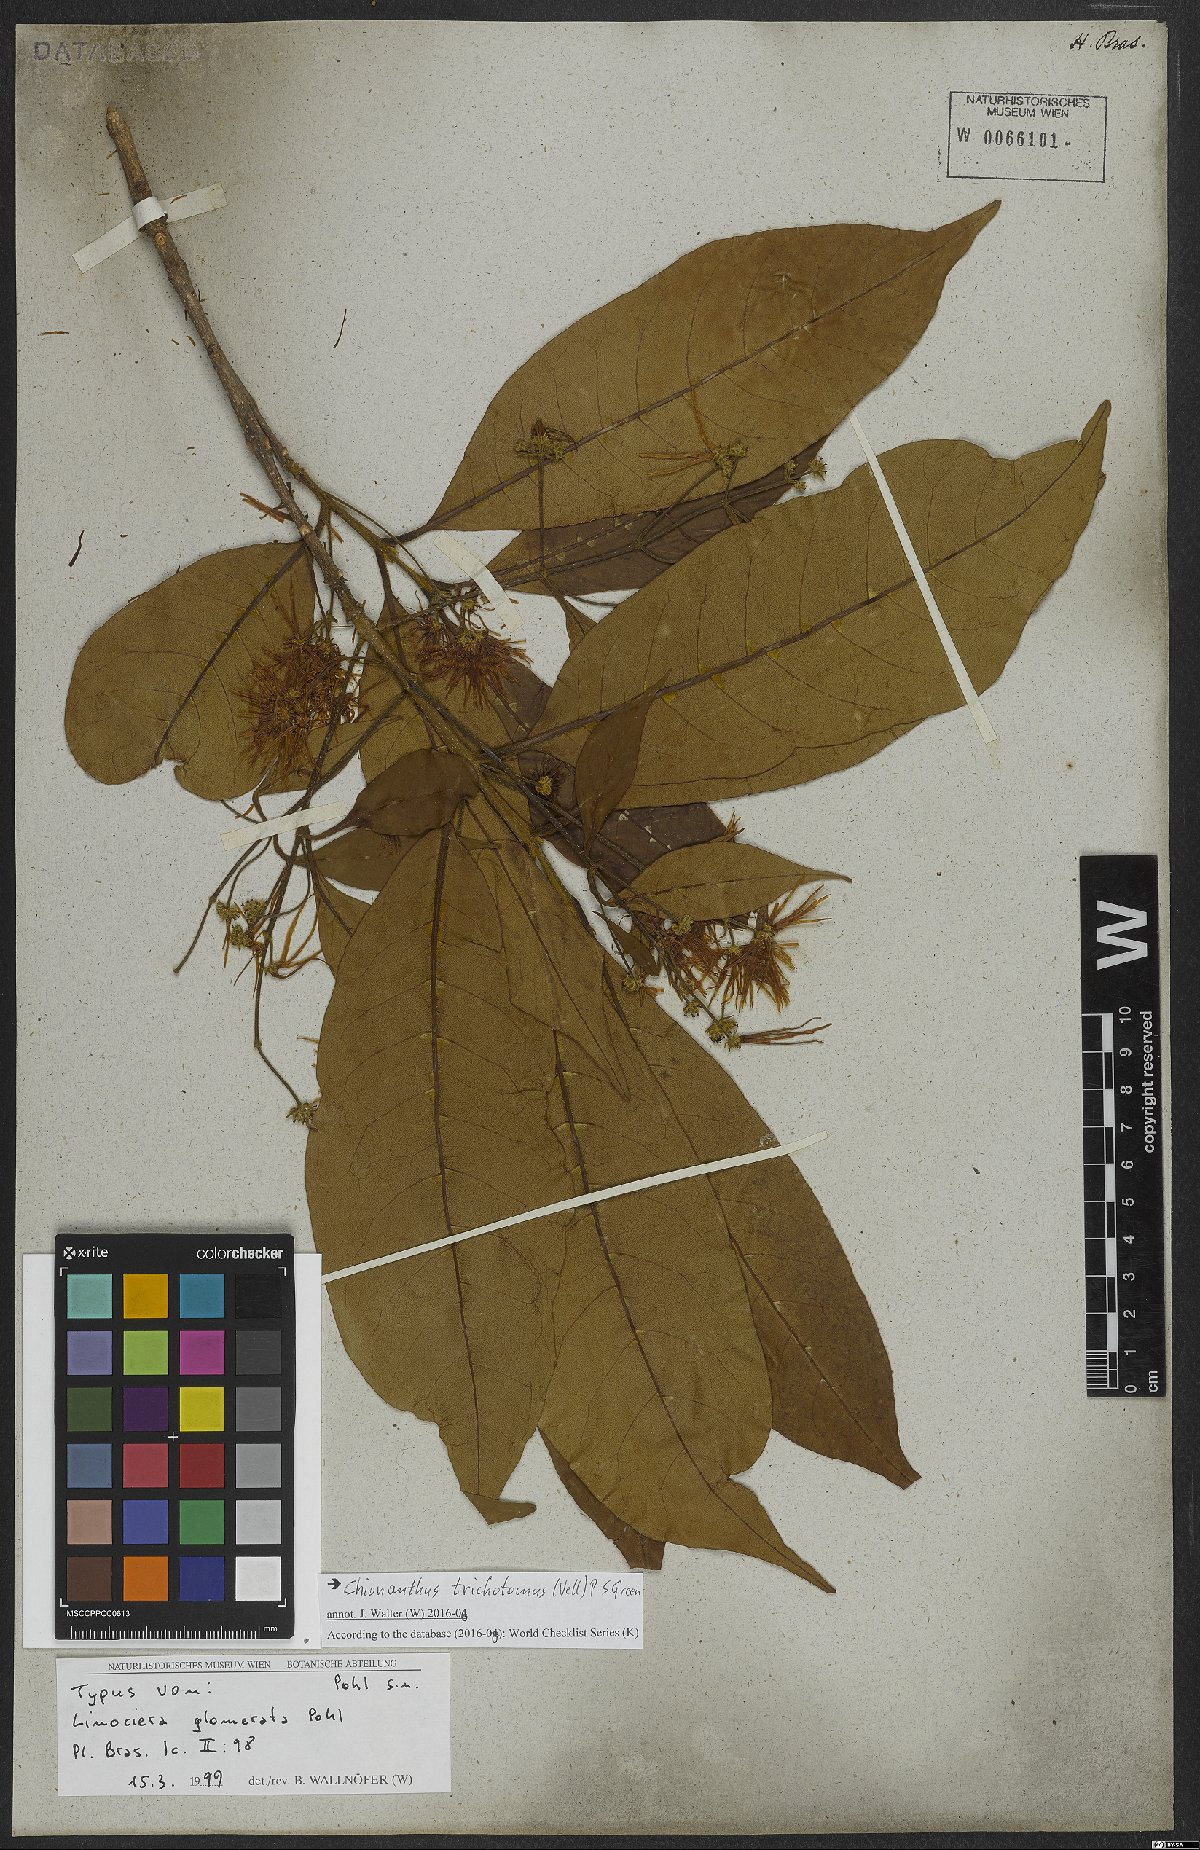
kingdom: Plantae
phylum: Tracheophyta
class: Magnoliopsida
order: Lamiales
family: Oleaceae
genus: Chionanthus
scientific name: Chionanthus trichotomus
